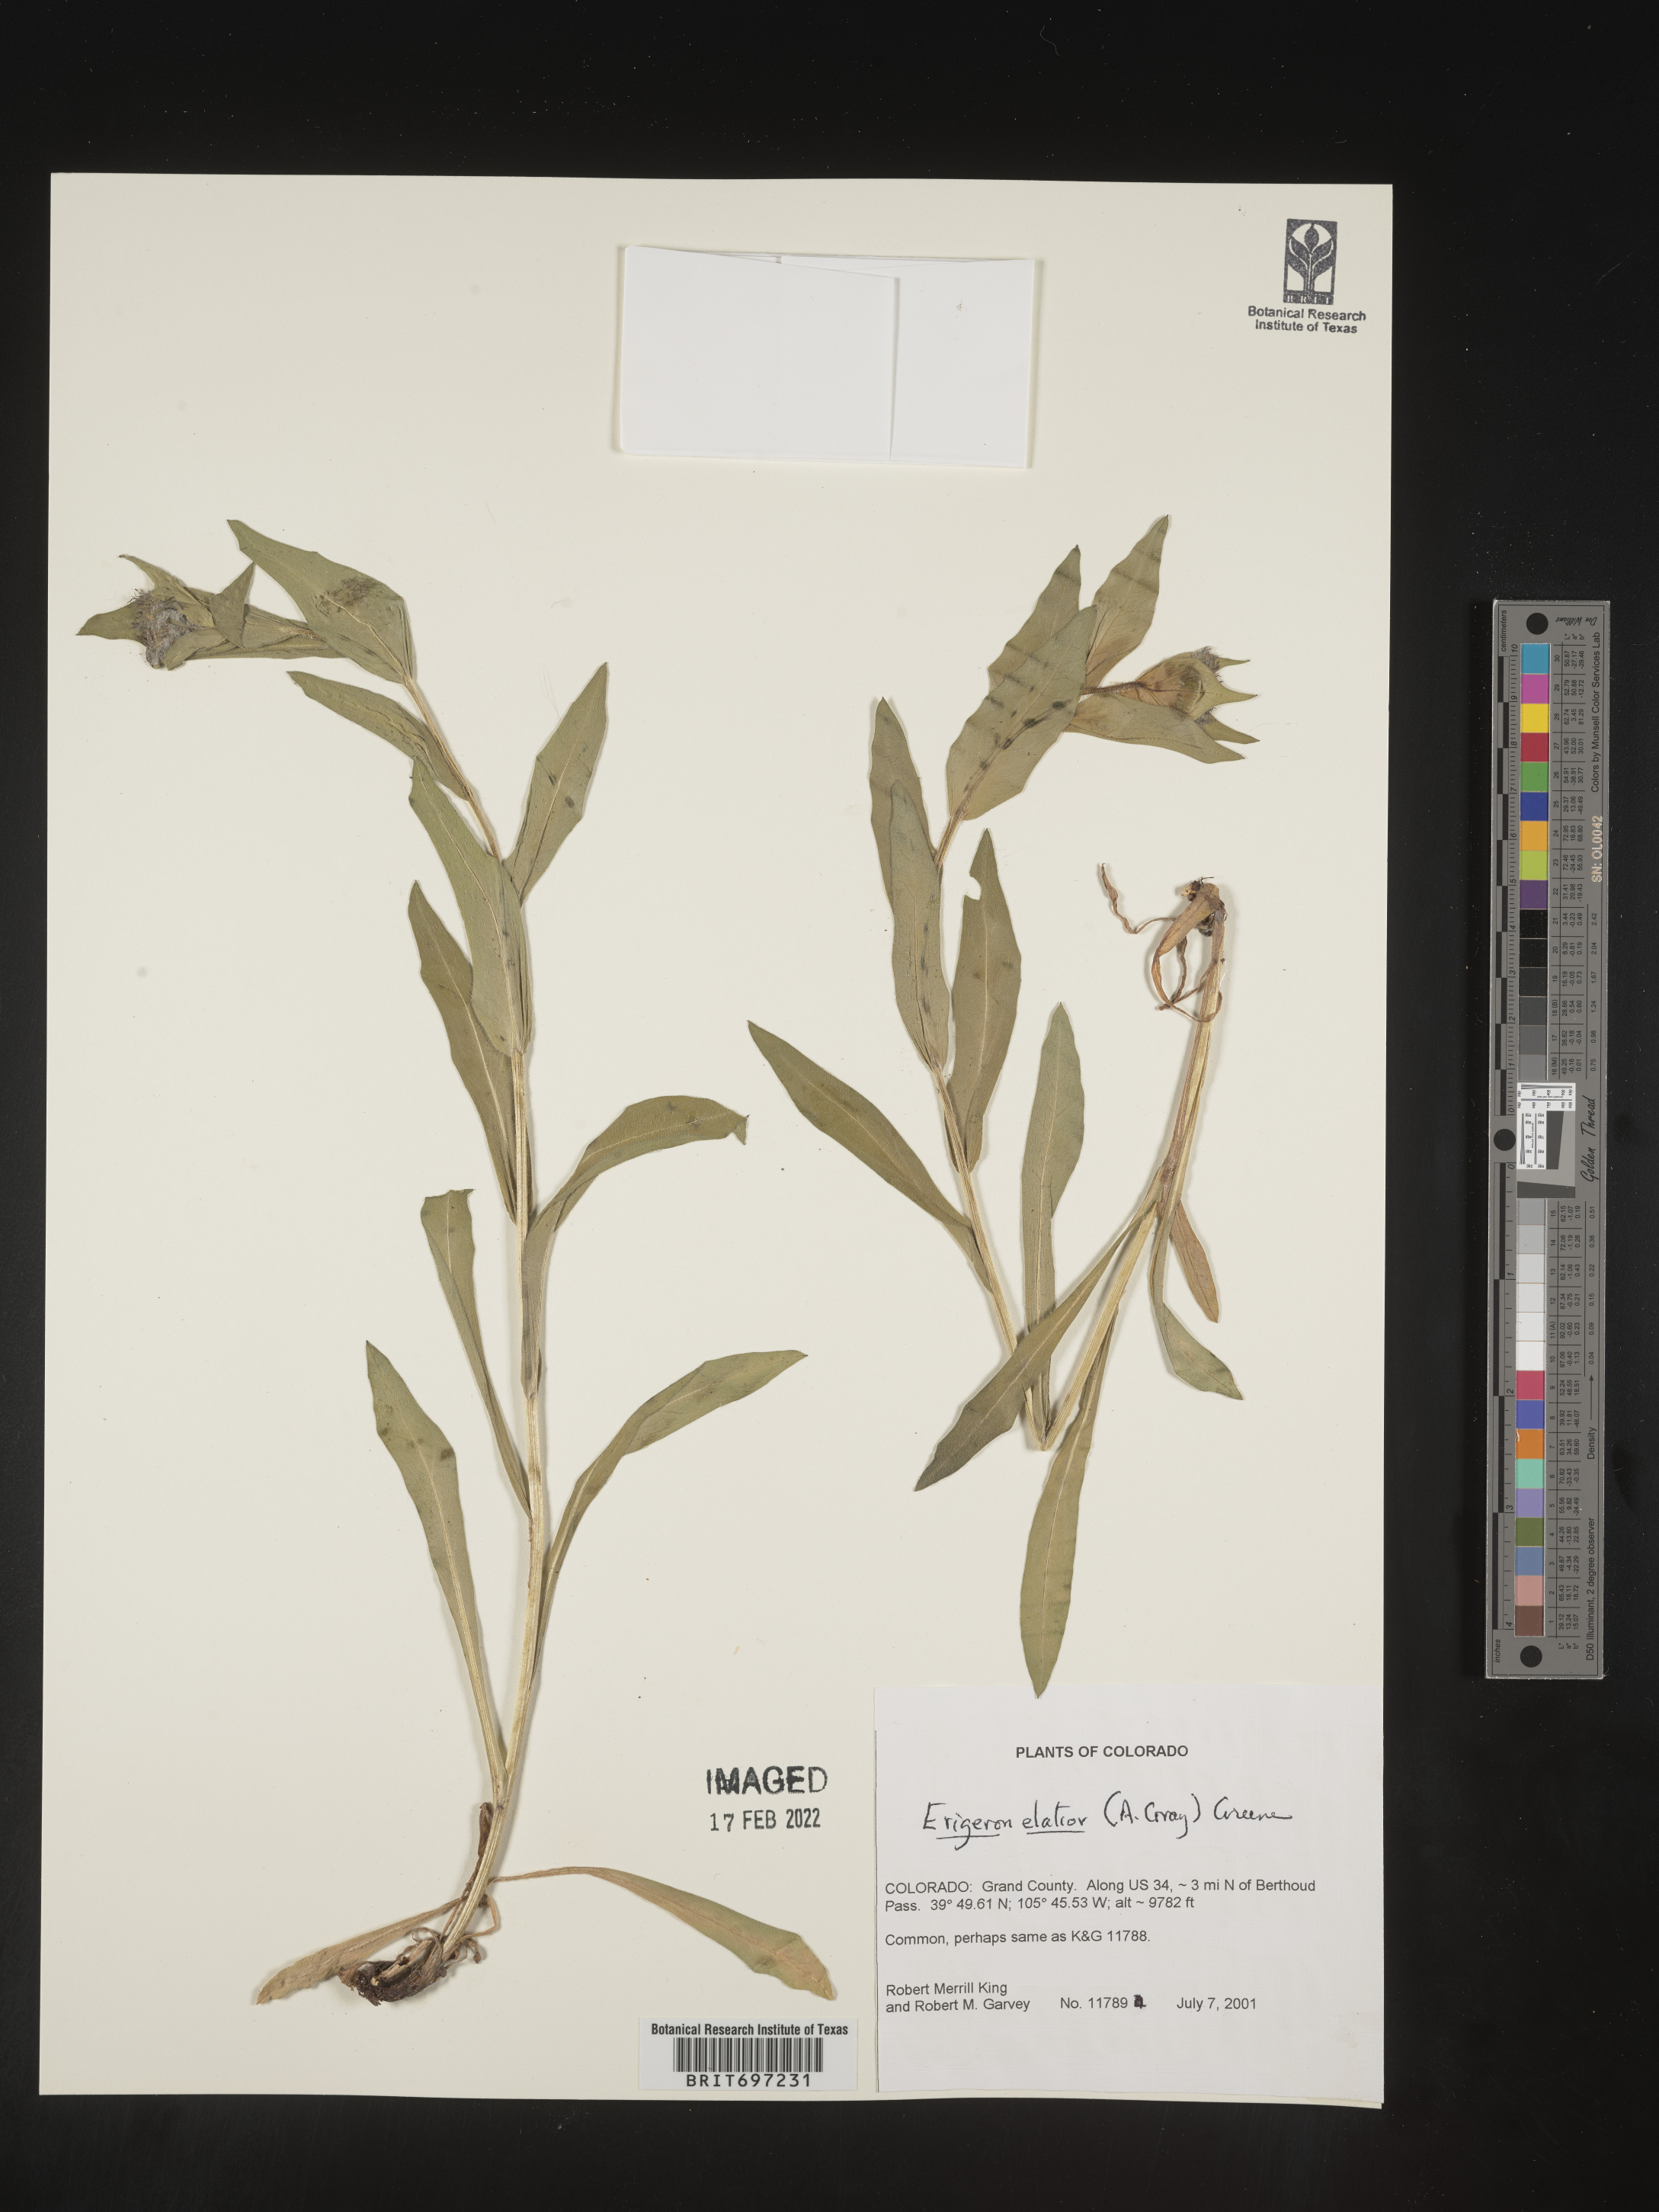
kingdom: Plantae
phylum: Tracheophyta
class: Magnoliopsida
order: Asterales
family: Asteraceae
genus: Erigeron
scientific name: Erigeron elatior
